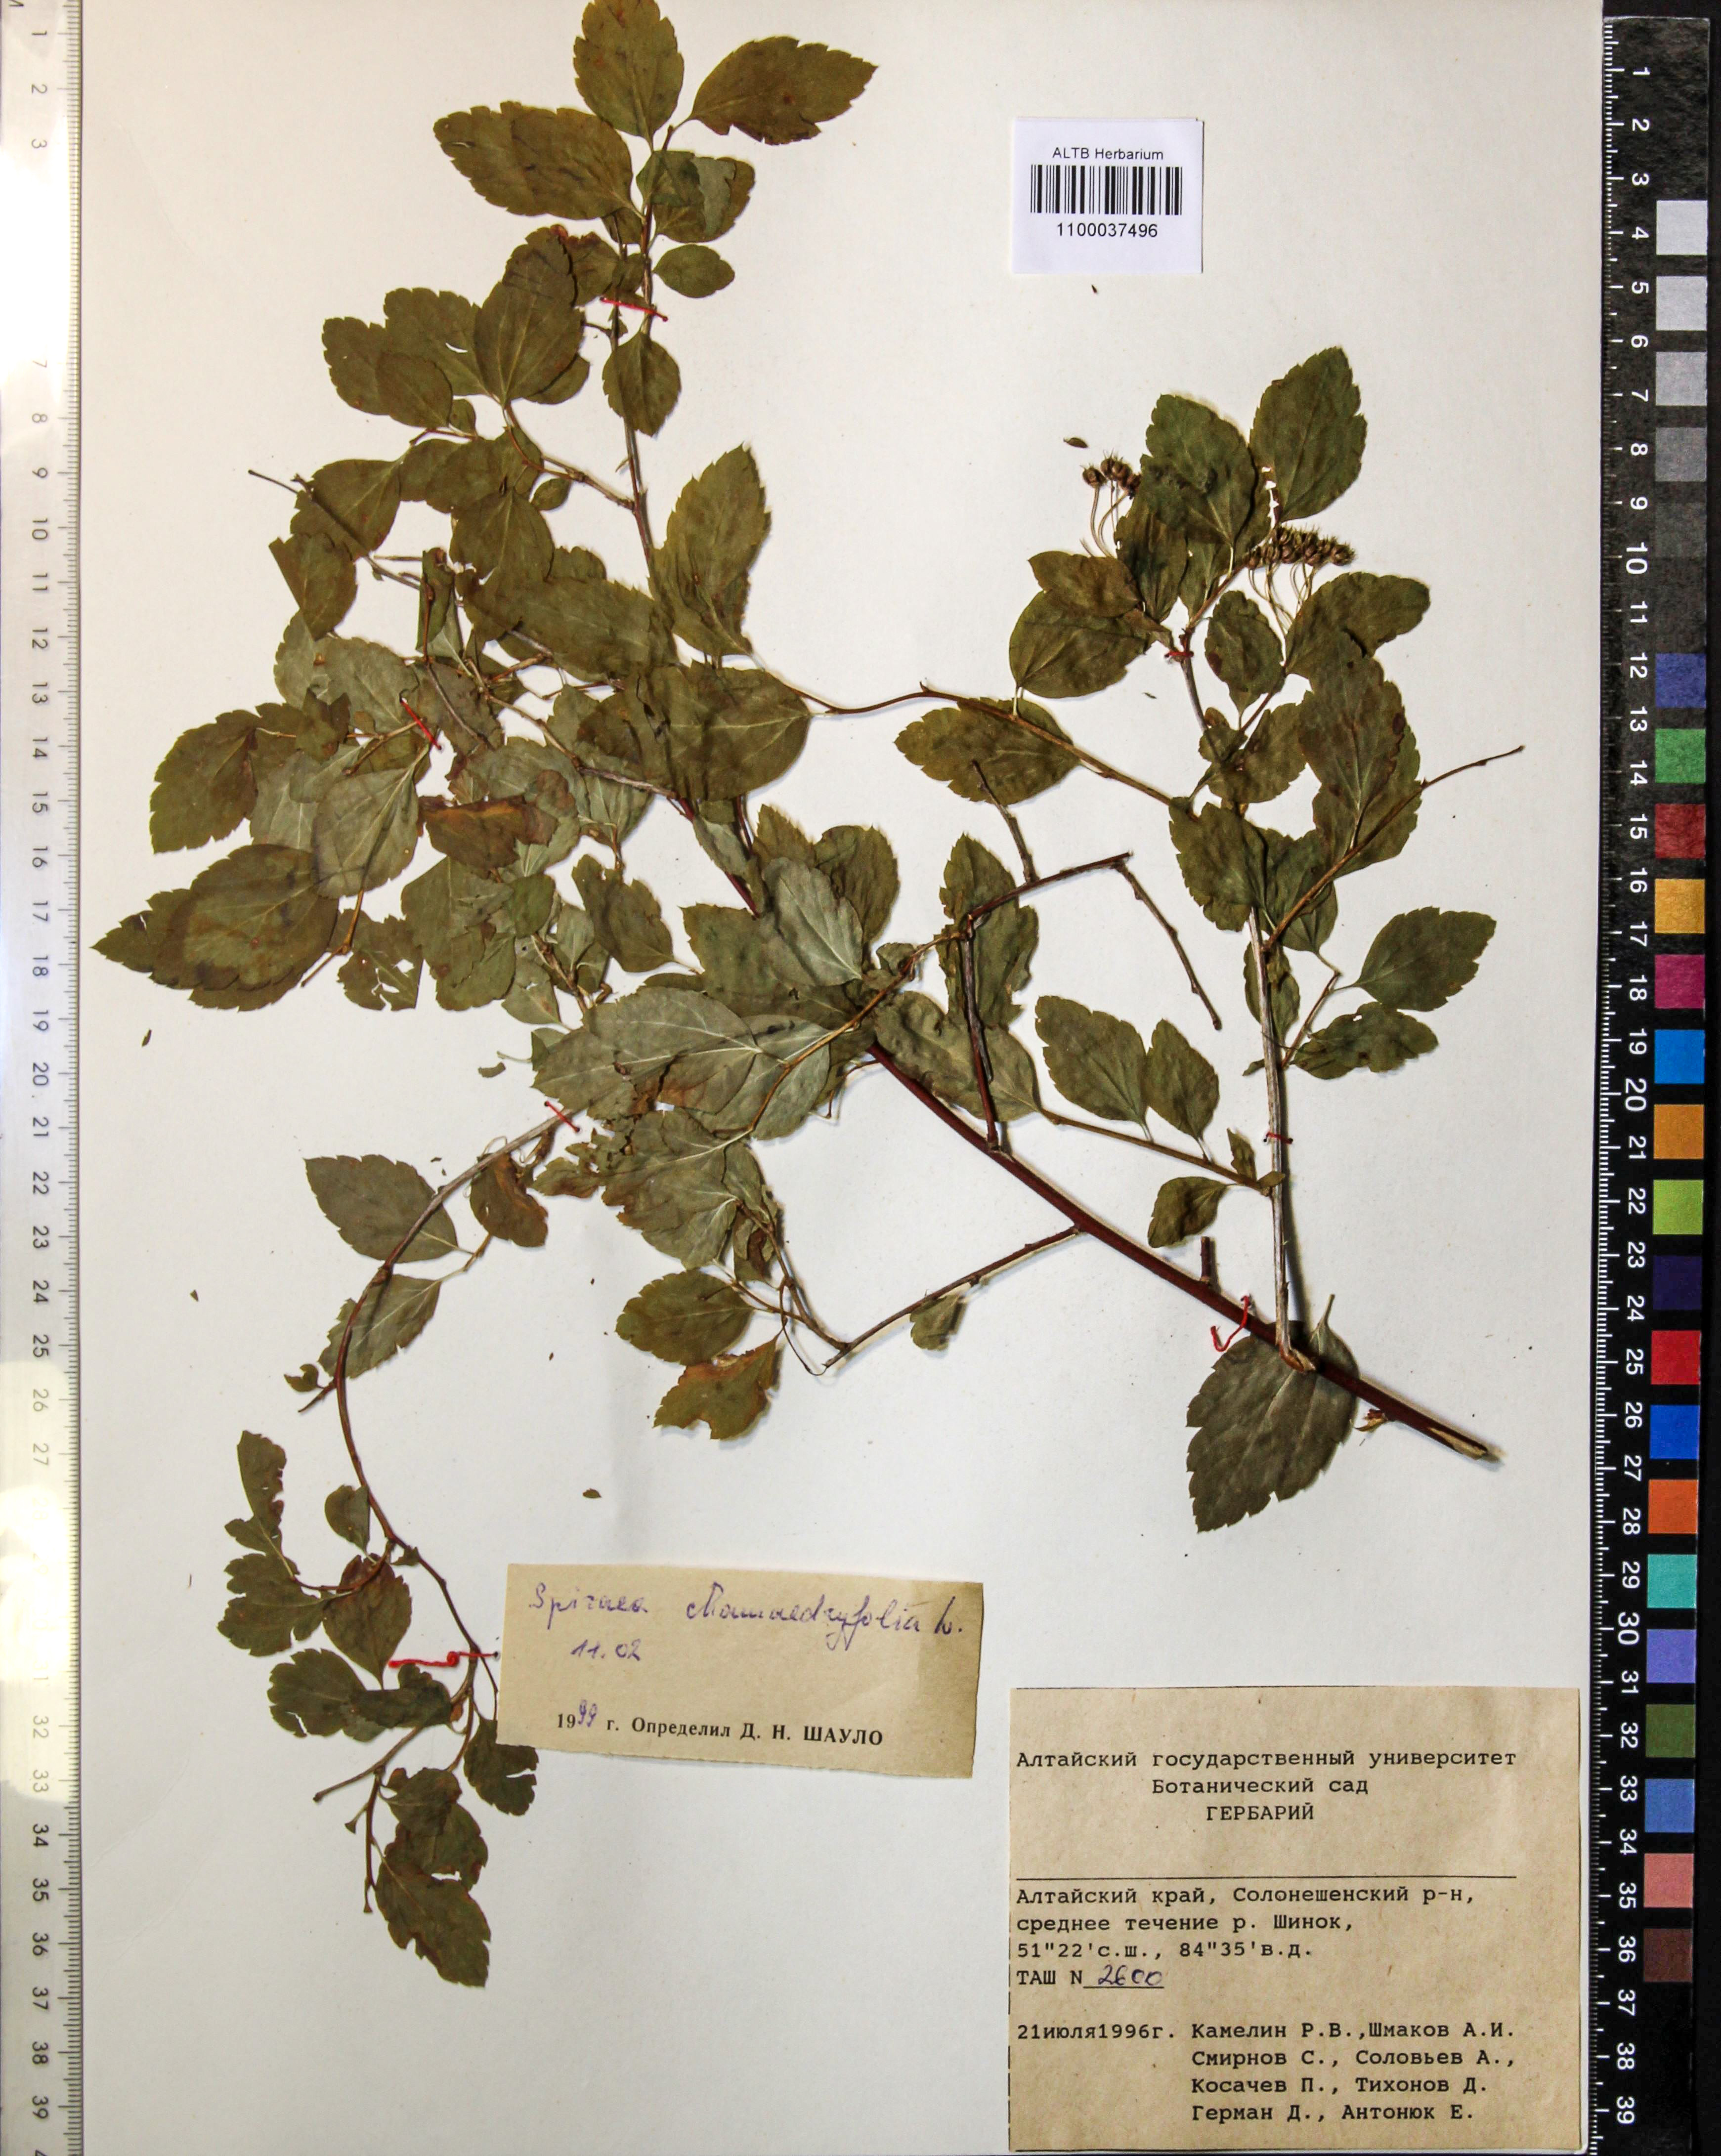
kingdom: Plantae
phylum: Tracheophyta
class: Magnoliopsida
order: Rosales
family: Rosaceae
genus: Spiraea
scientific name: Spiraea chamaedryfolia
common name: Elm-leaved spiraea
